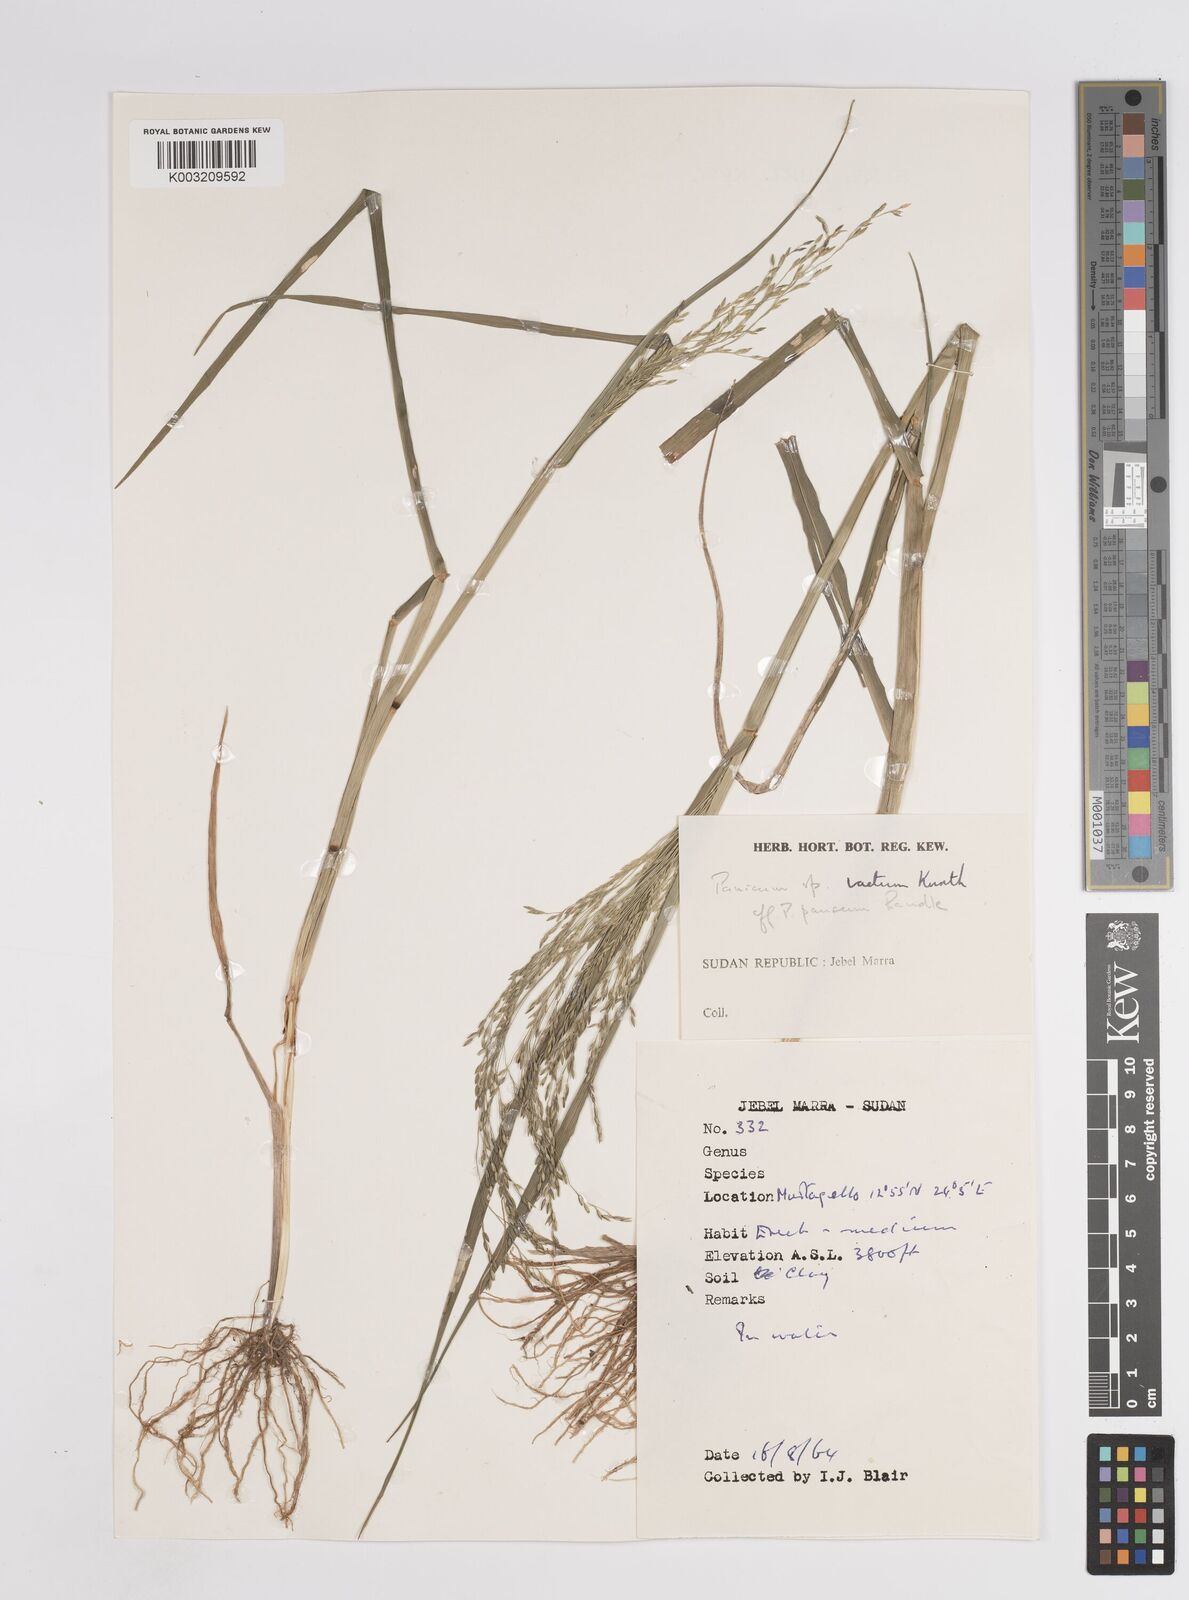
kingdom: Plantae
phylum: Tracheophyta
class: Liliopsida
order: Poales
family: Poaceae
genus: Panicum
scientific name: Panicum subalbidum
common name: Elbow buffalo grass
